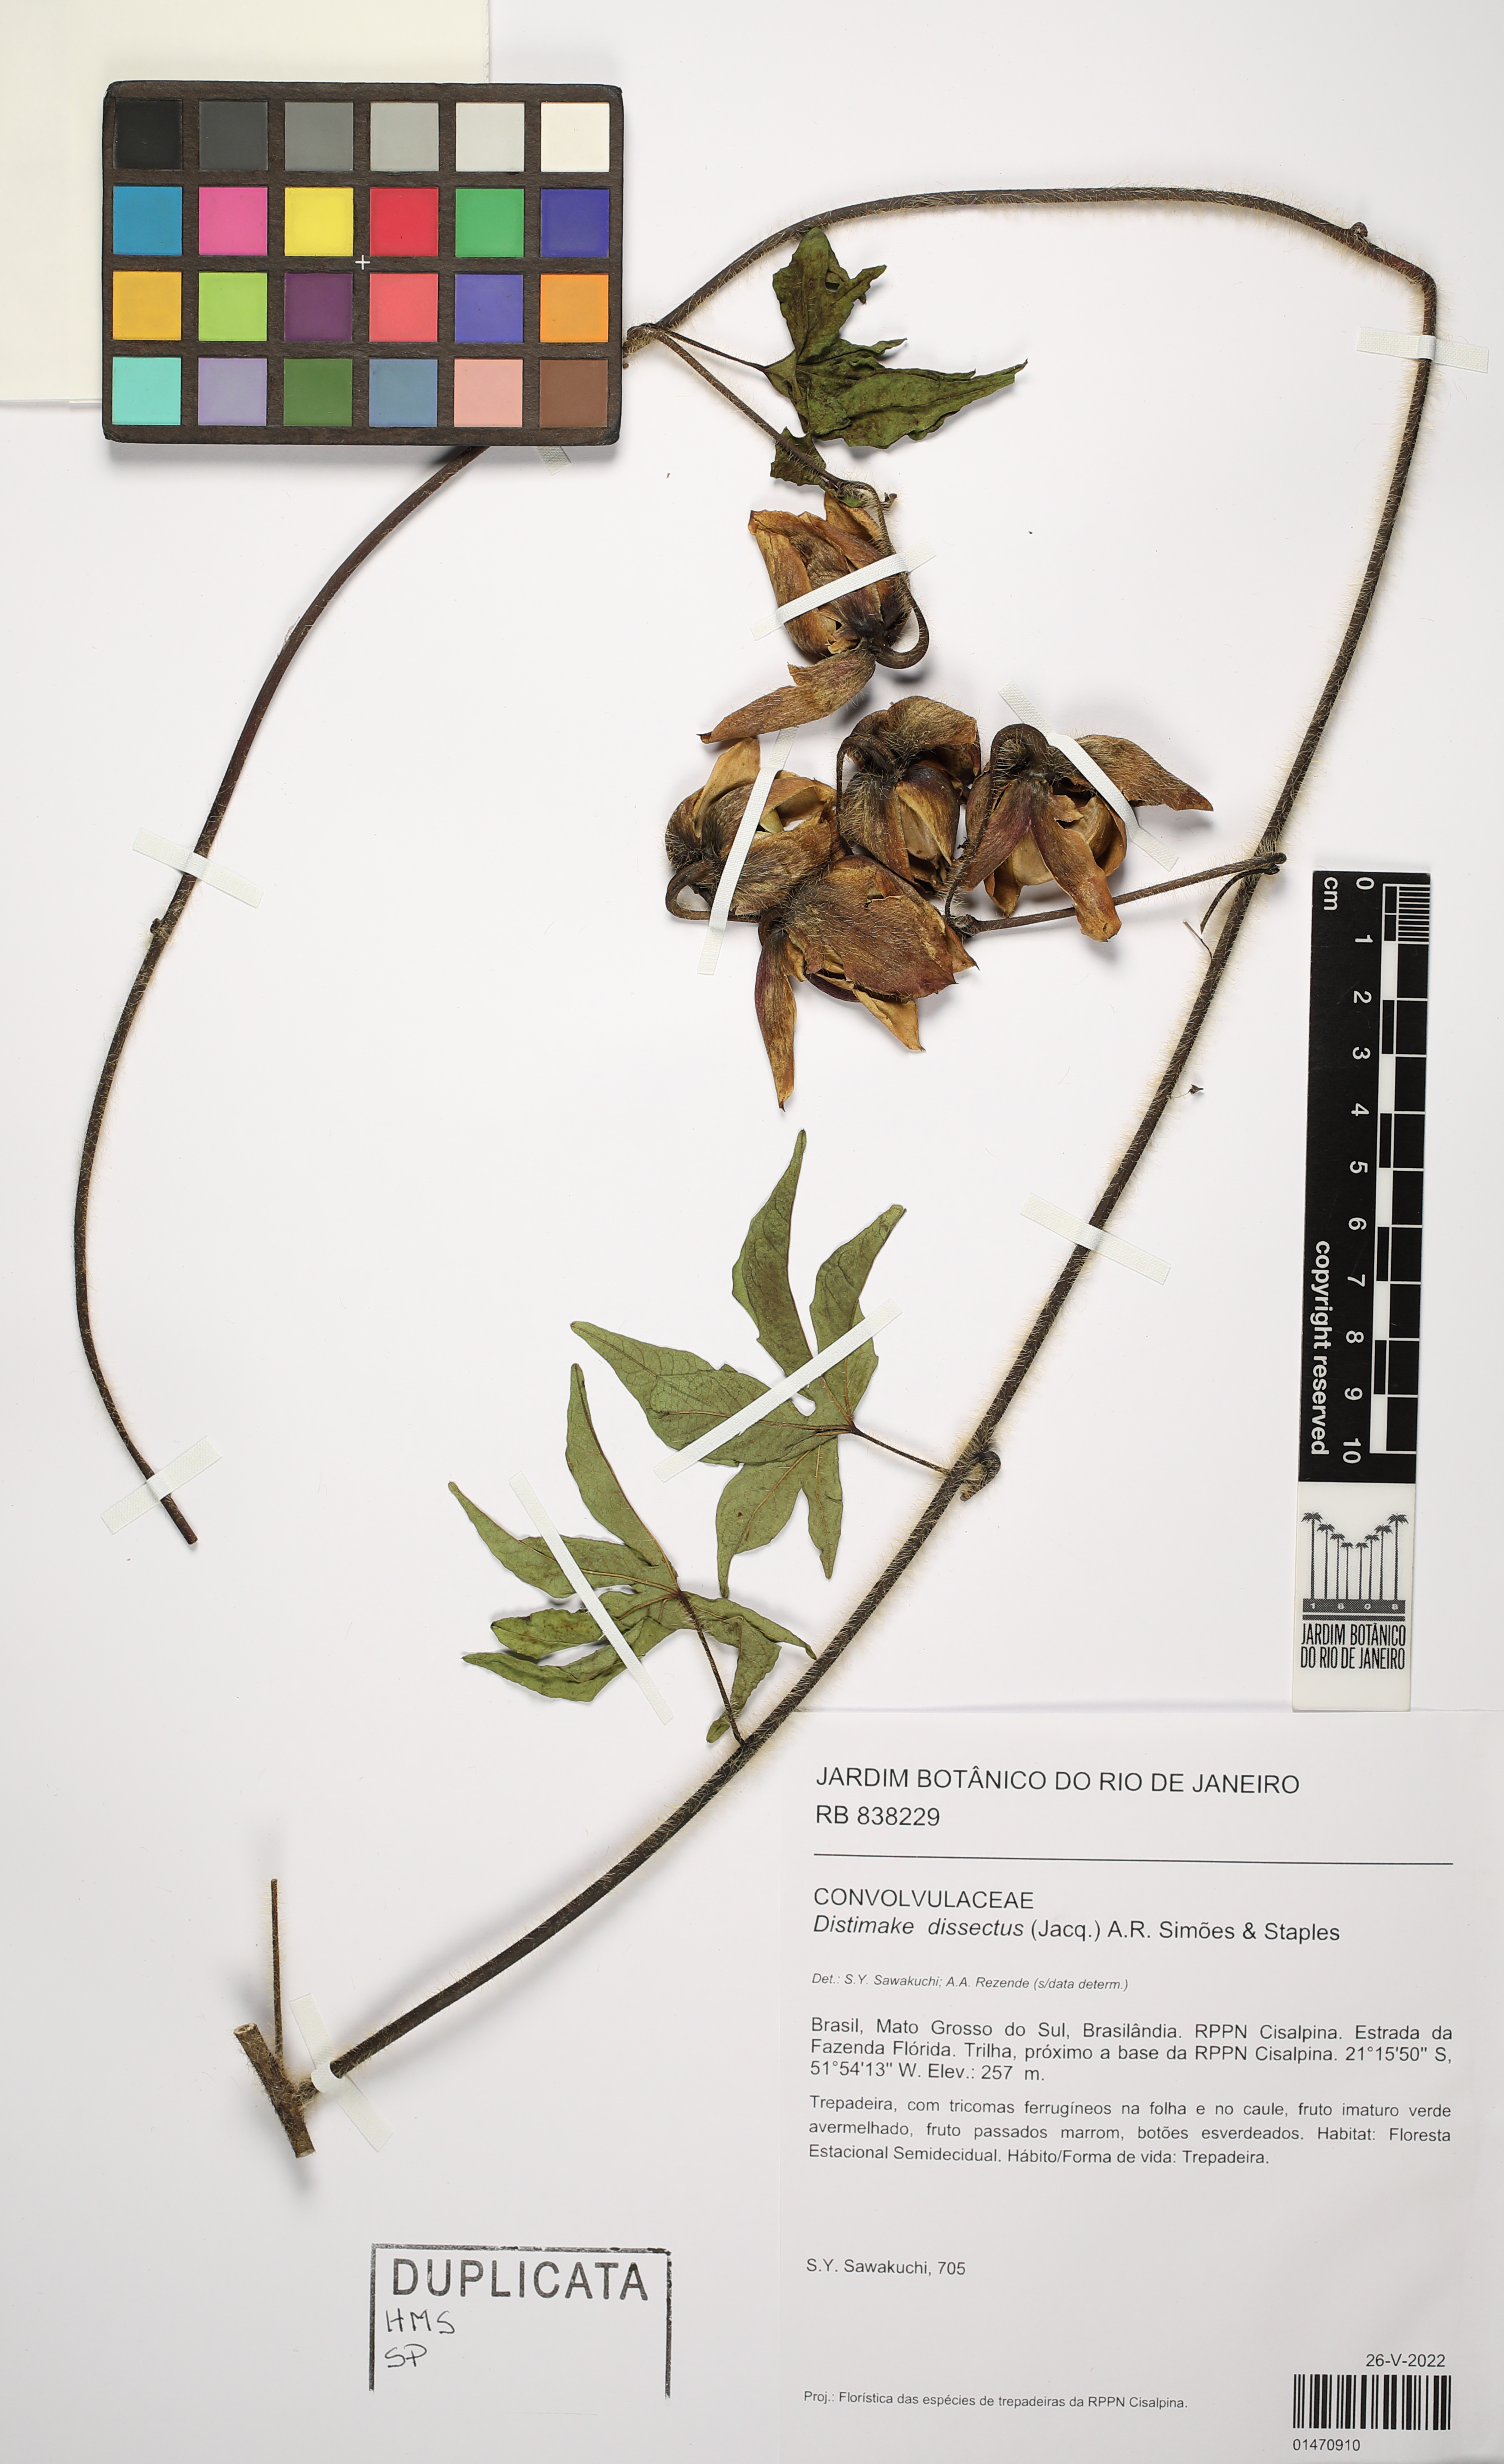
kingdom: Plantae
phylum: Tracheophyta
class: Magnoliopsida
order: Solanales
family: Convolvulaceae
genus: Distimake
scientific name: Distimake dissectus
